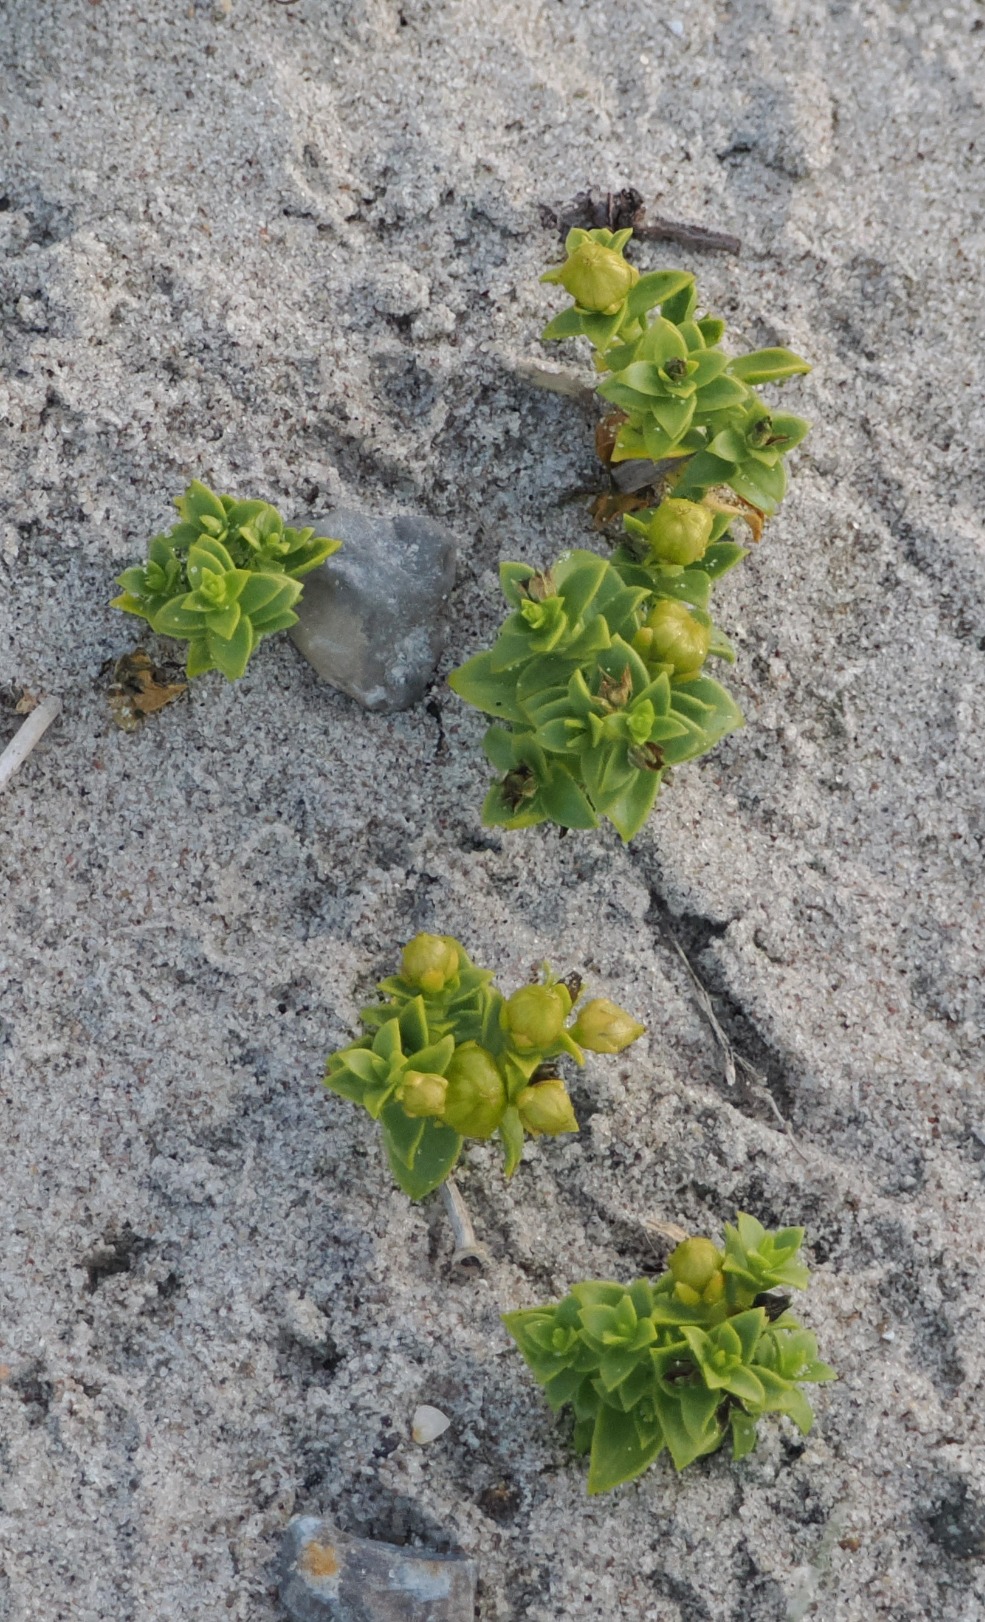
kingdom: Plantae
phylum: Tracheophyta
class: Magnoliopsida
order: Caryophyllales
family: Caryophyllaceae
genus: Honckenya
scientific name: Honckenya peploides
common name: Strandarve
